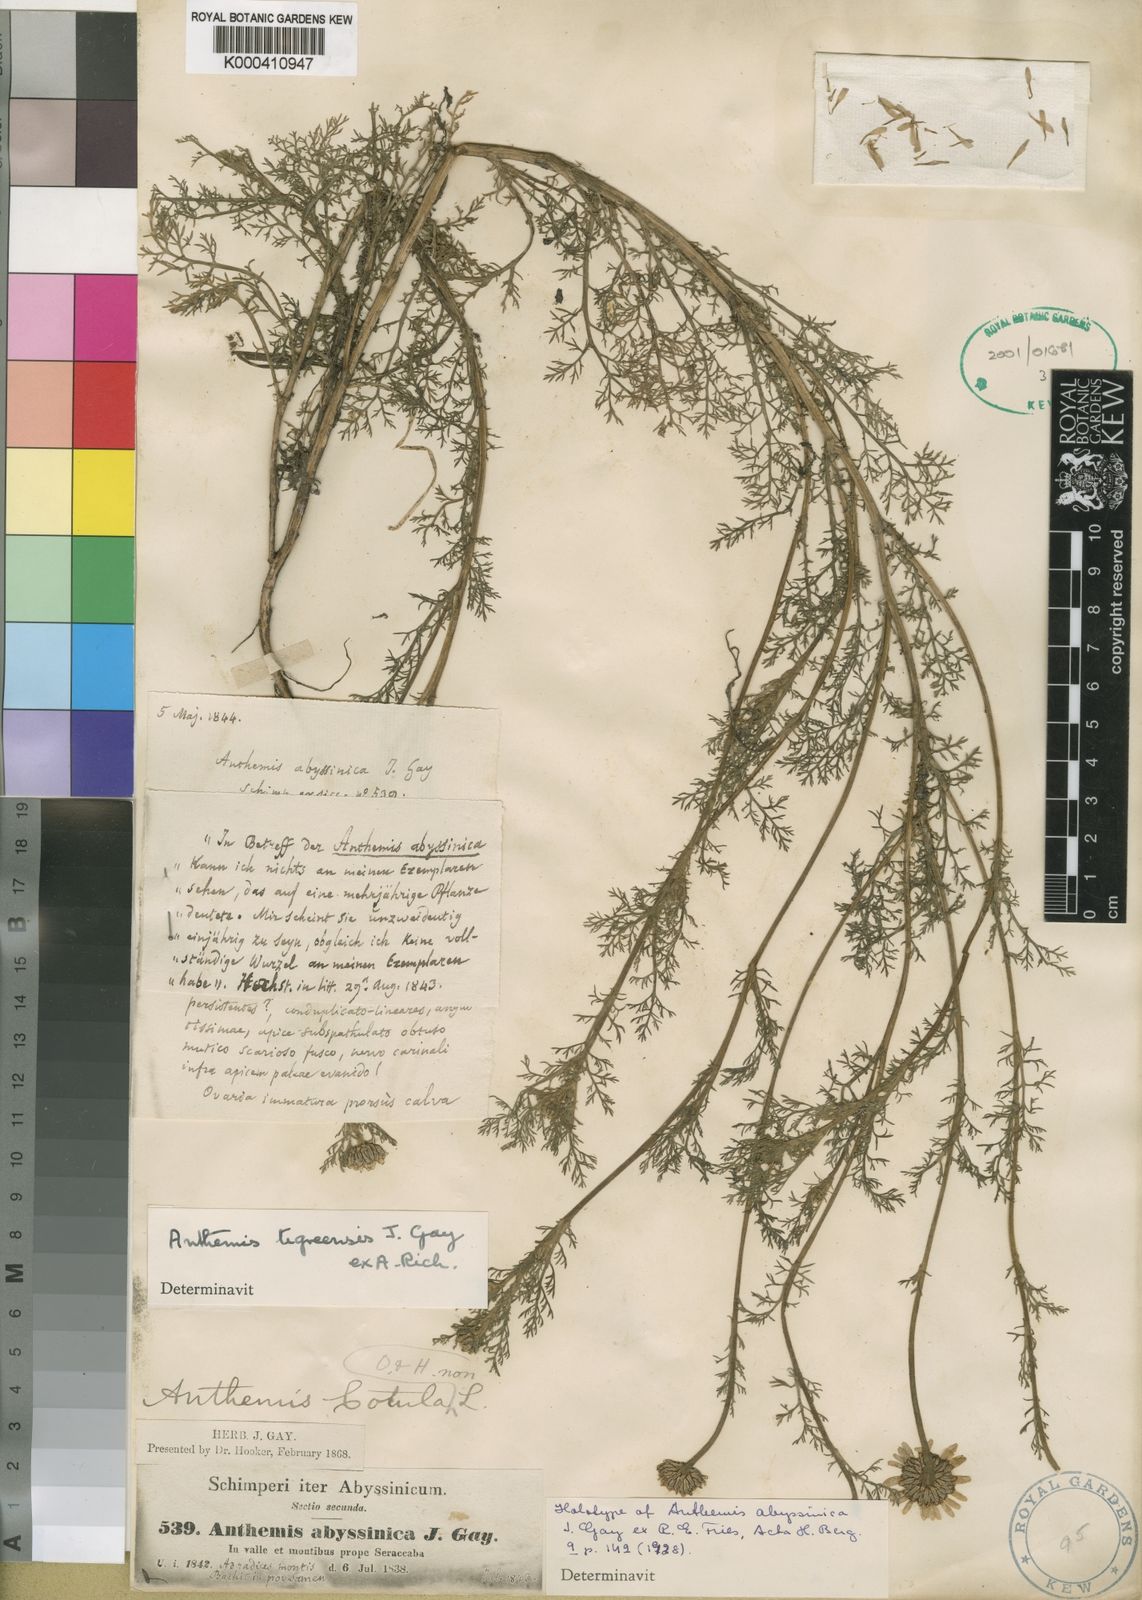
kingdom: Plantae
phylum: Tracheophyta
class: Magnoliopsida
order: Asterales
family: Asteraceae
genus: Eclipta
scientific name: Eclipta alba
